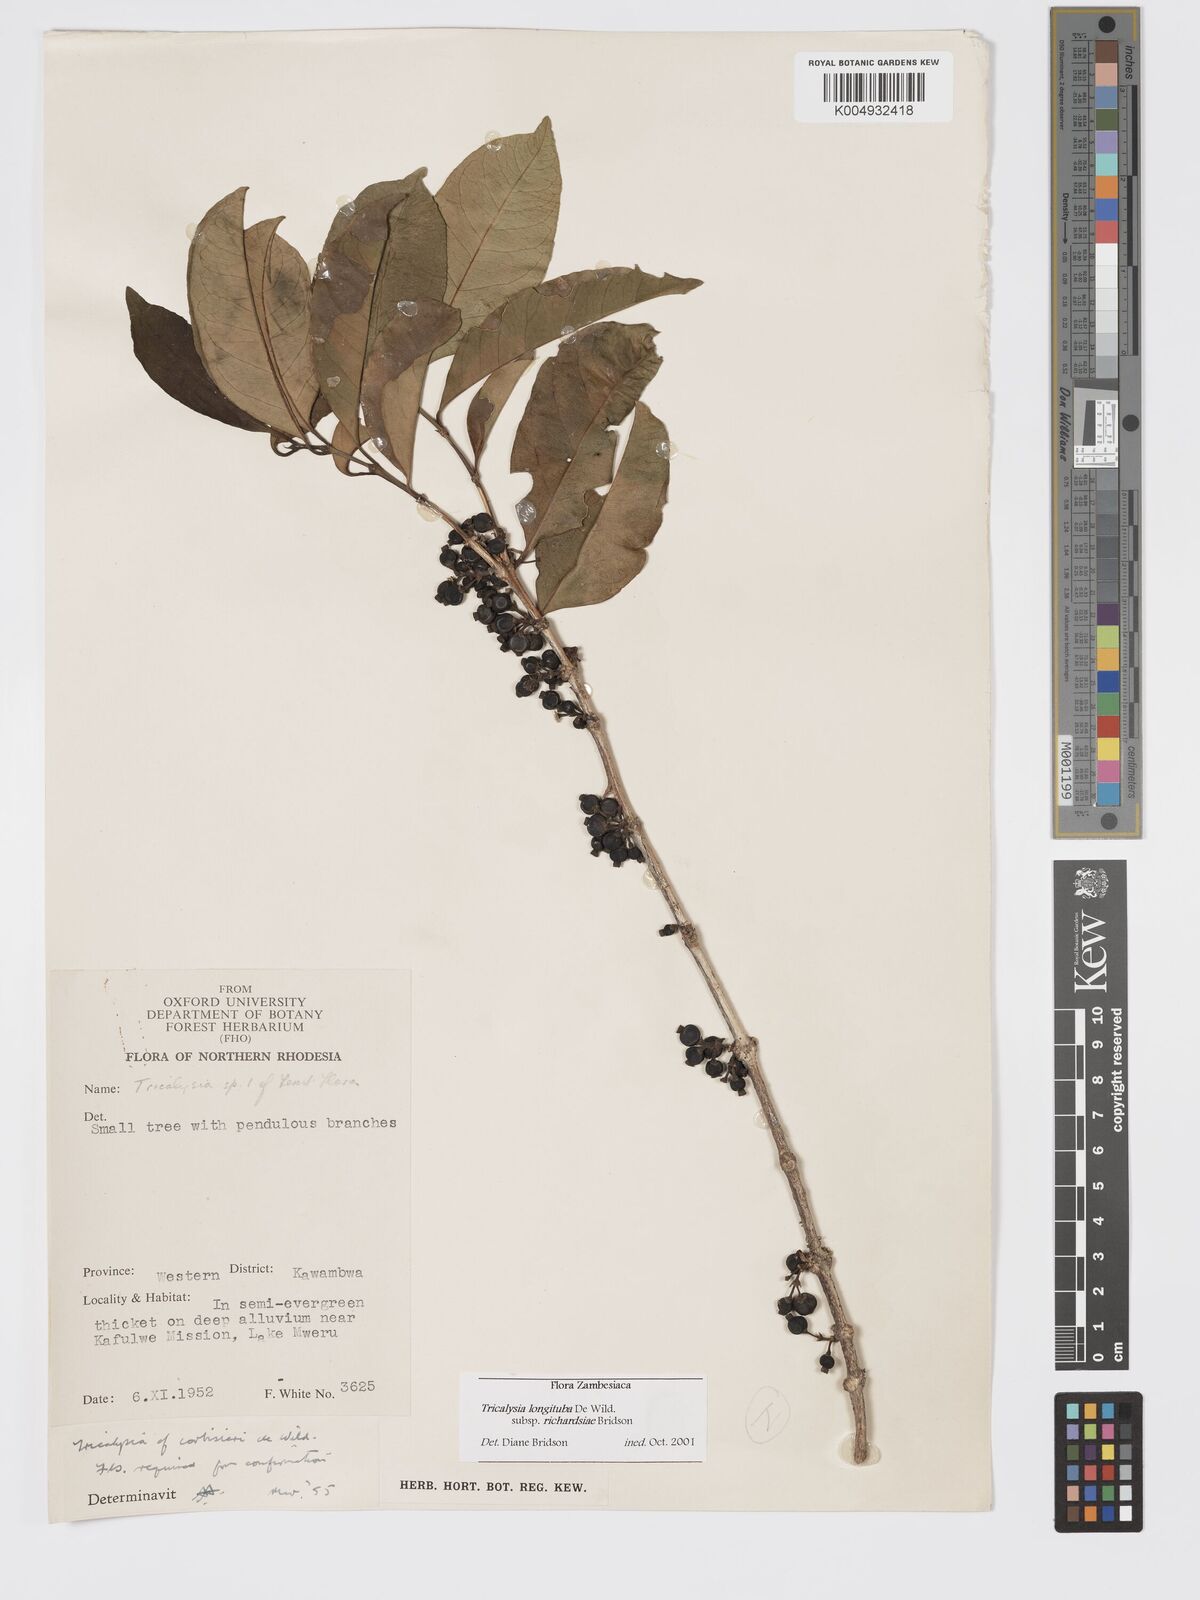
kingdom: Plantae
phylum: Tracheophyta
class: Magnoliopsida
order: Gentianales
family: Rubiaceae
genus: Tricalysia
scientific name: Tricalysia longituba
